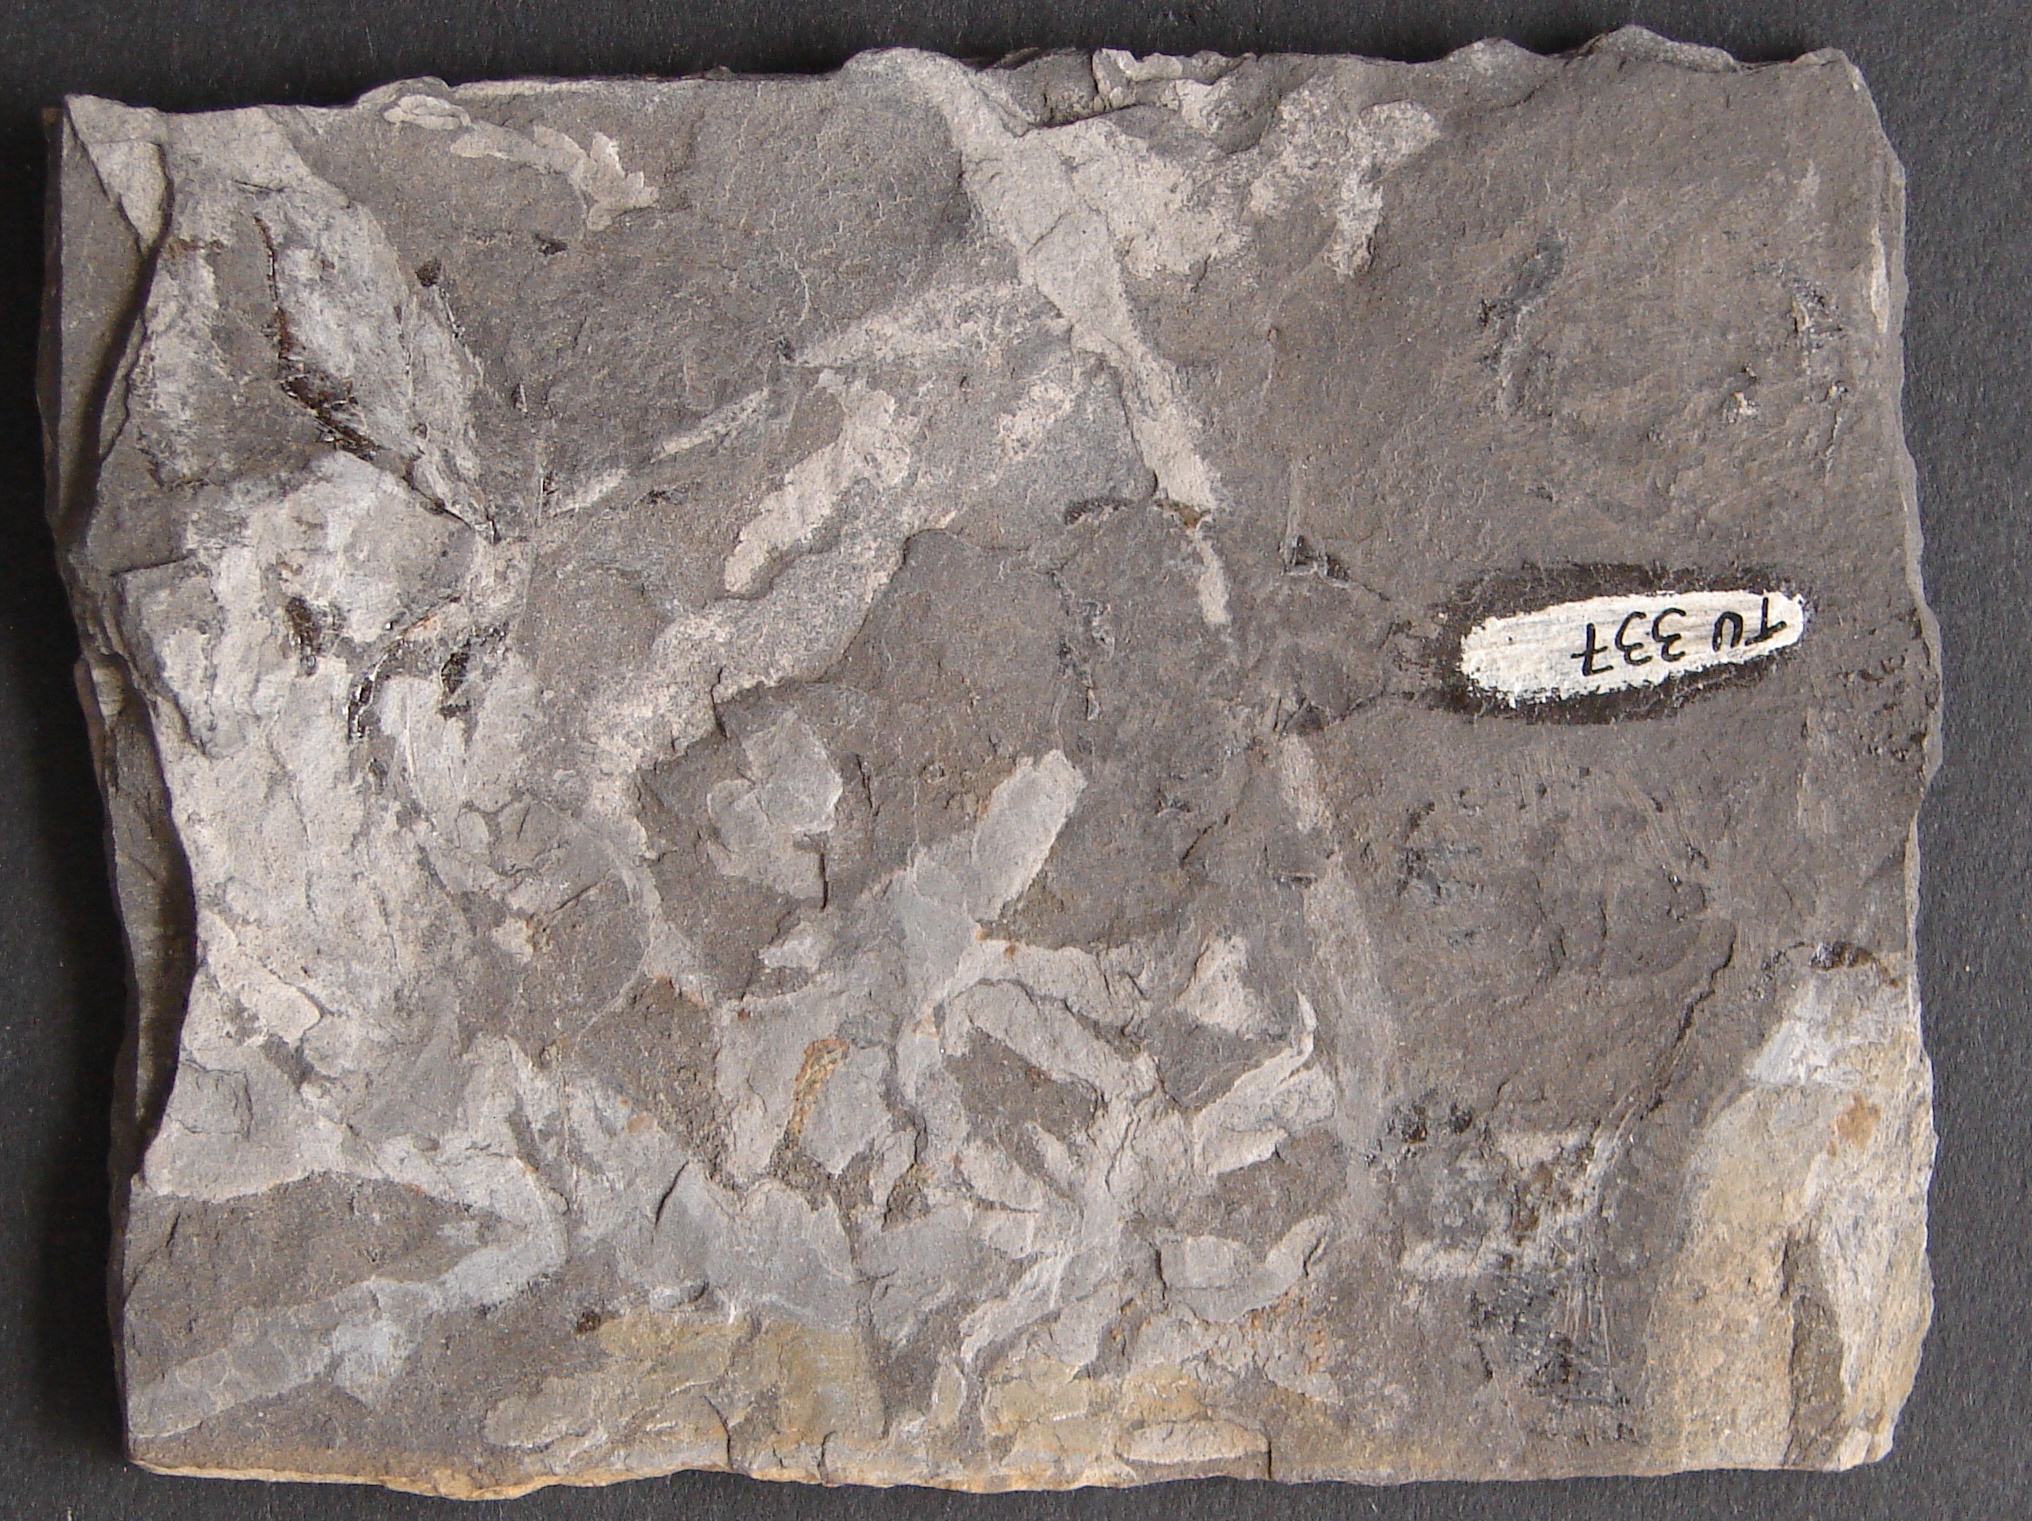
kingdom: Animalia
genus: Chondrites
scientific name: Chondrites
